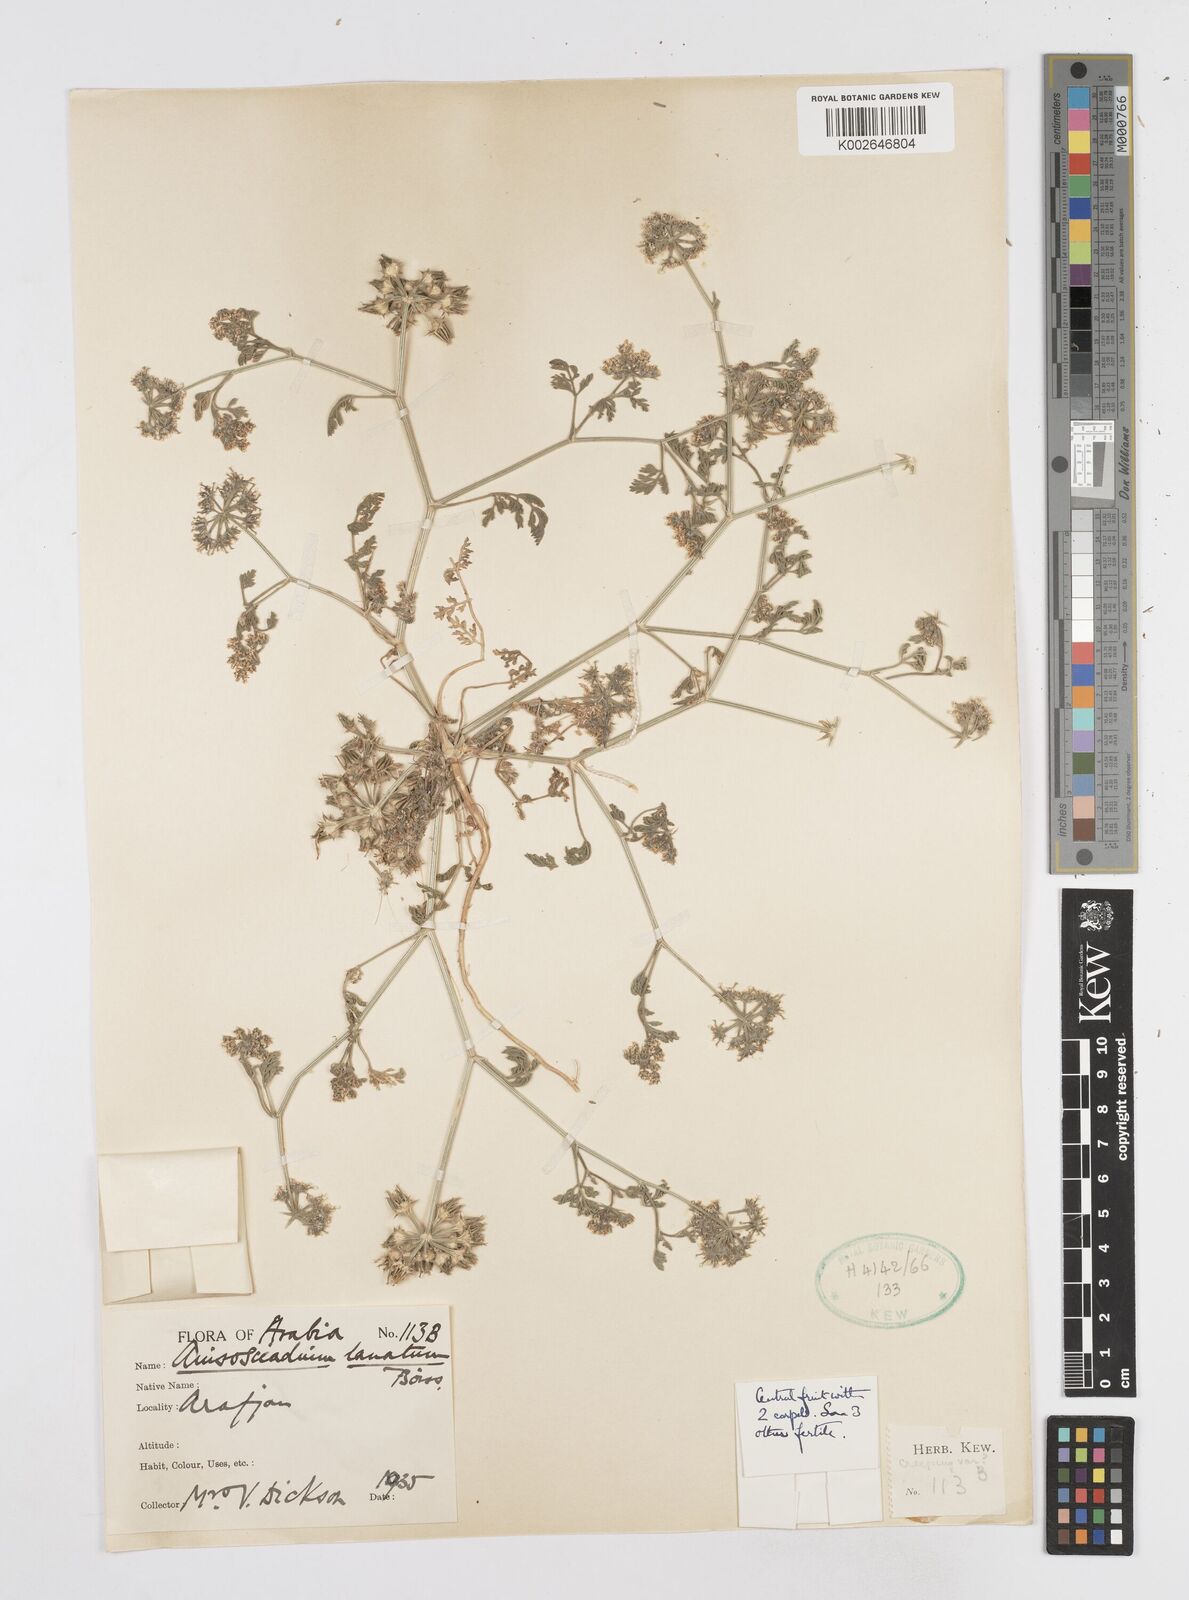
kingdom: Plantae
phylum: Tracheophyta
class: Magnoliopsida
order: Apiales
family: Apiaceae
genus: Anisosciadium
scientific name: Anisosciadium lanatum
